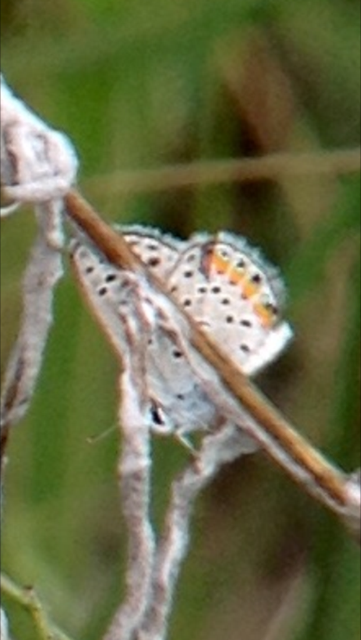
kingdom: Animalia
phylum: Arthropoda
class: Insecta
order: Lepidoptera
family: Lycaenidae
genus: Plebejus
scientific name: Plebejus acmon
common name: Acmon Blue
